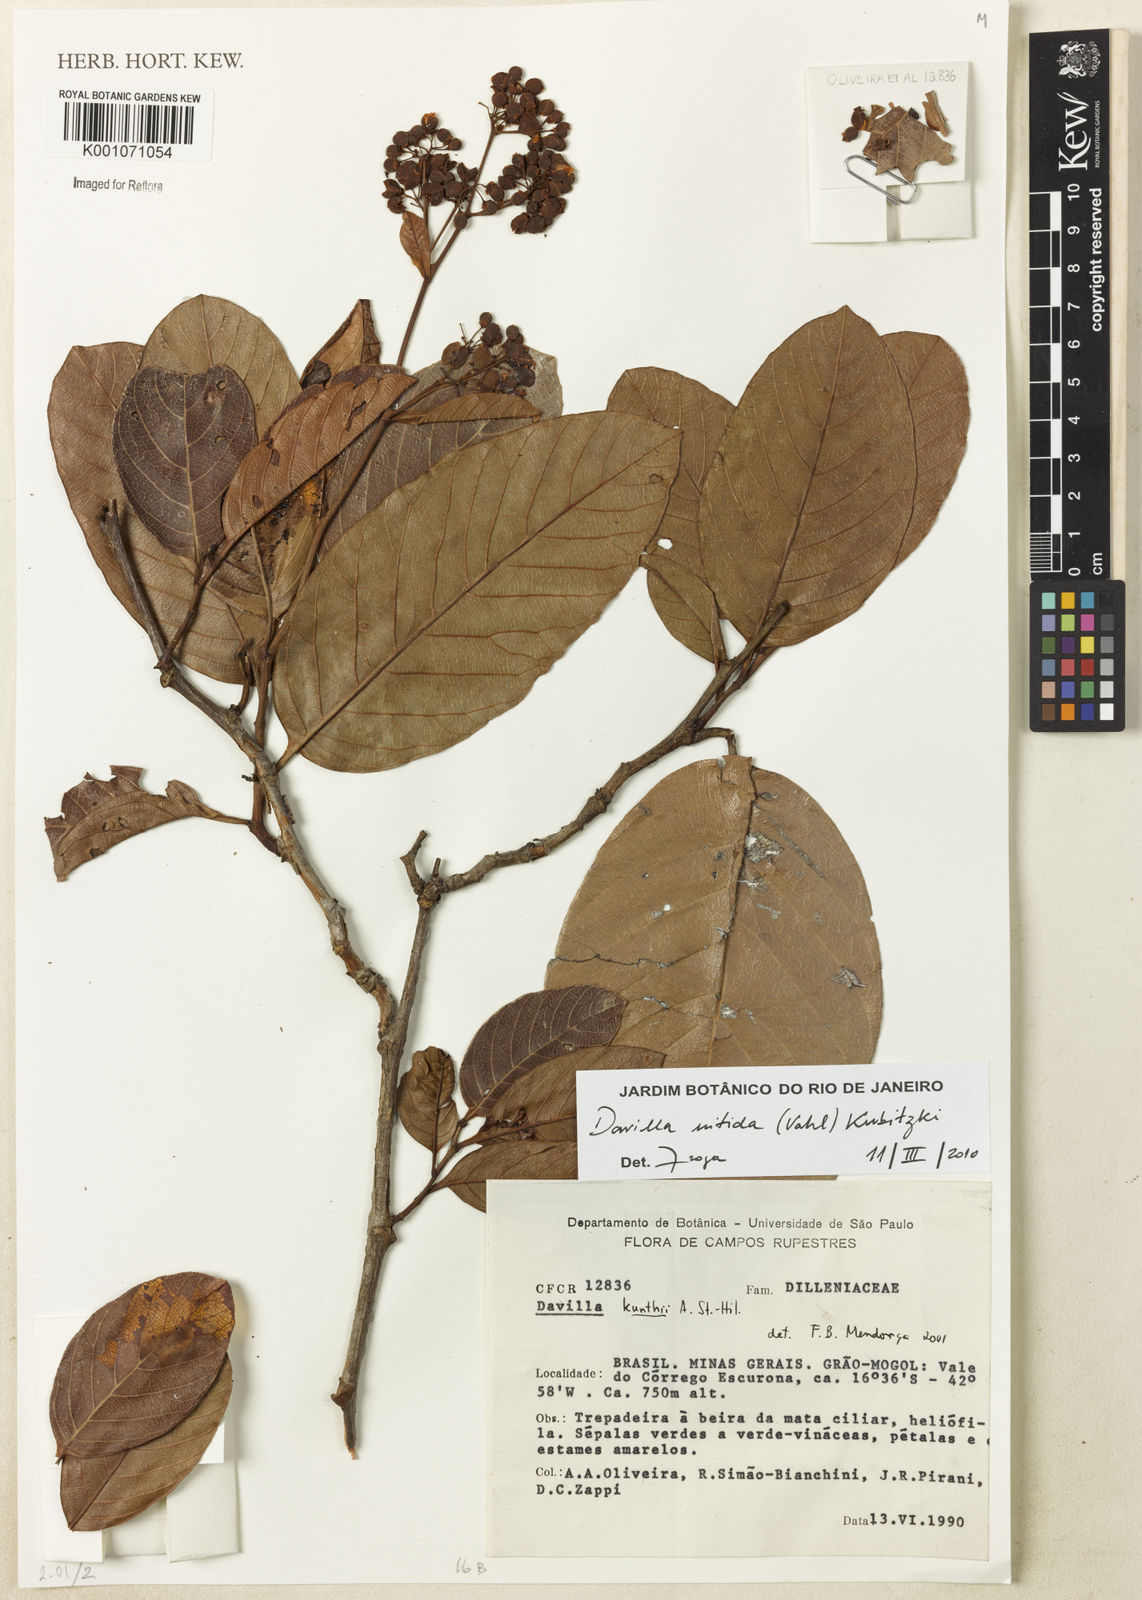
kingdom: Plantae
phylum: Tracheophyta
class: Magnoliopsida
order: Dilleniales
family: Dilleniaceae
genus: Davilla
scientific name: Davilla kunthii
